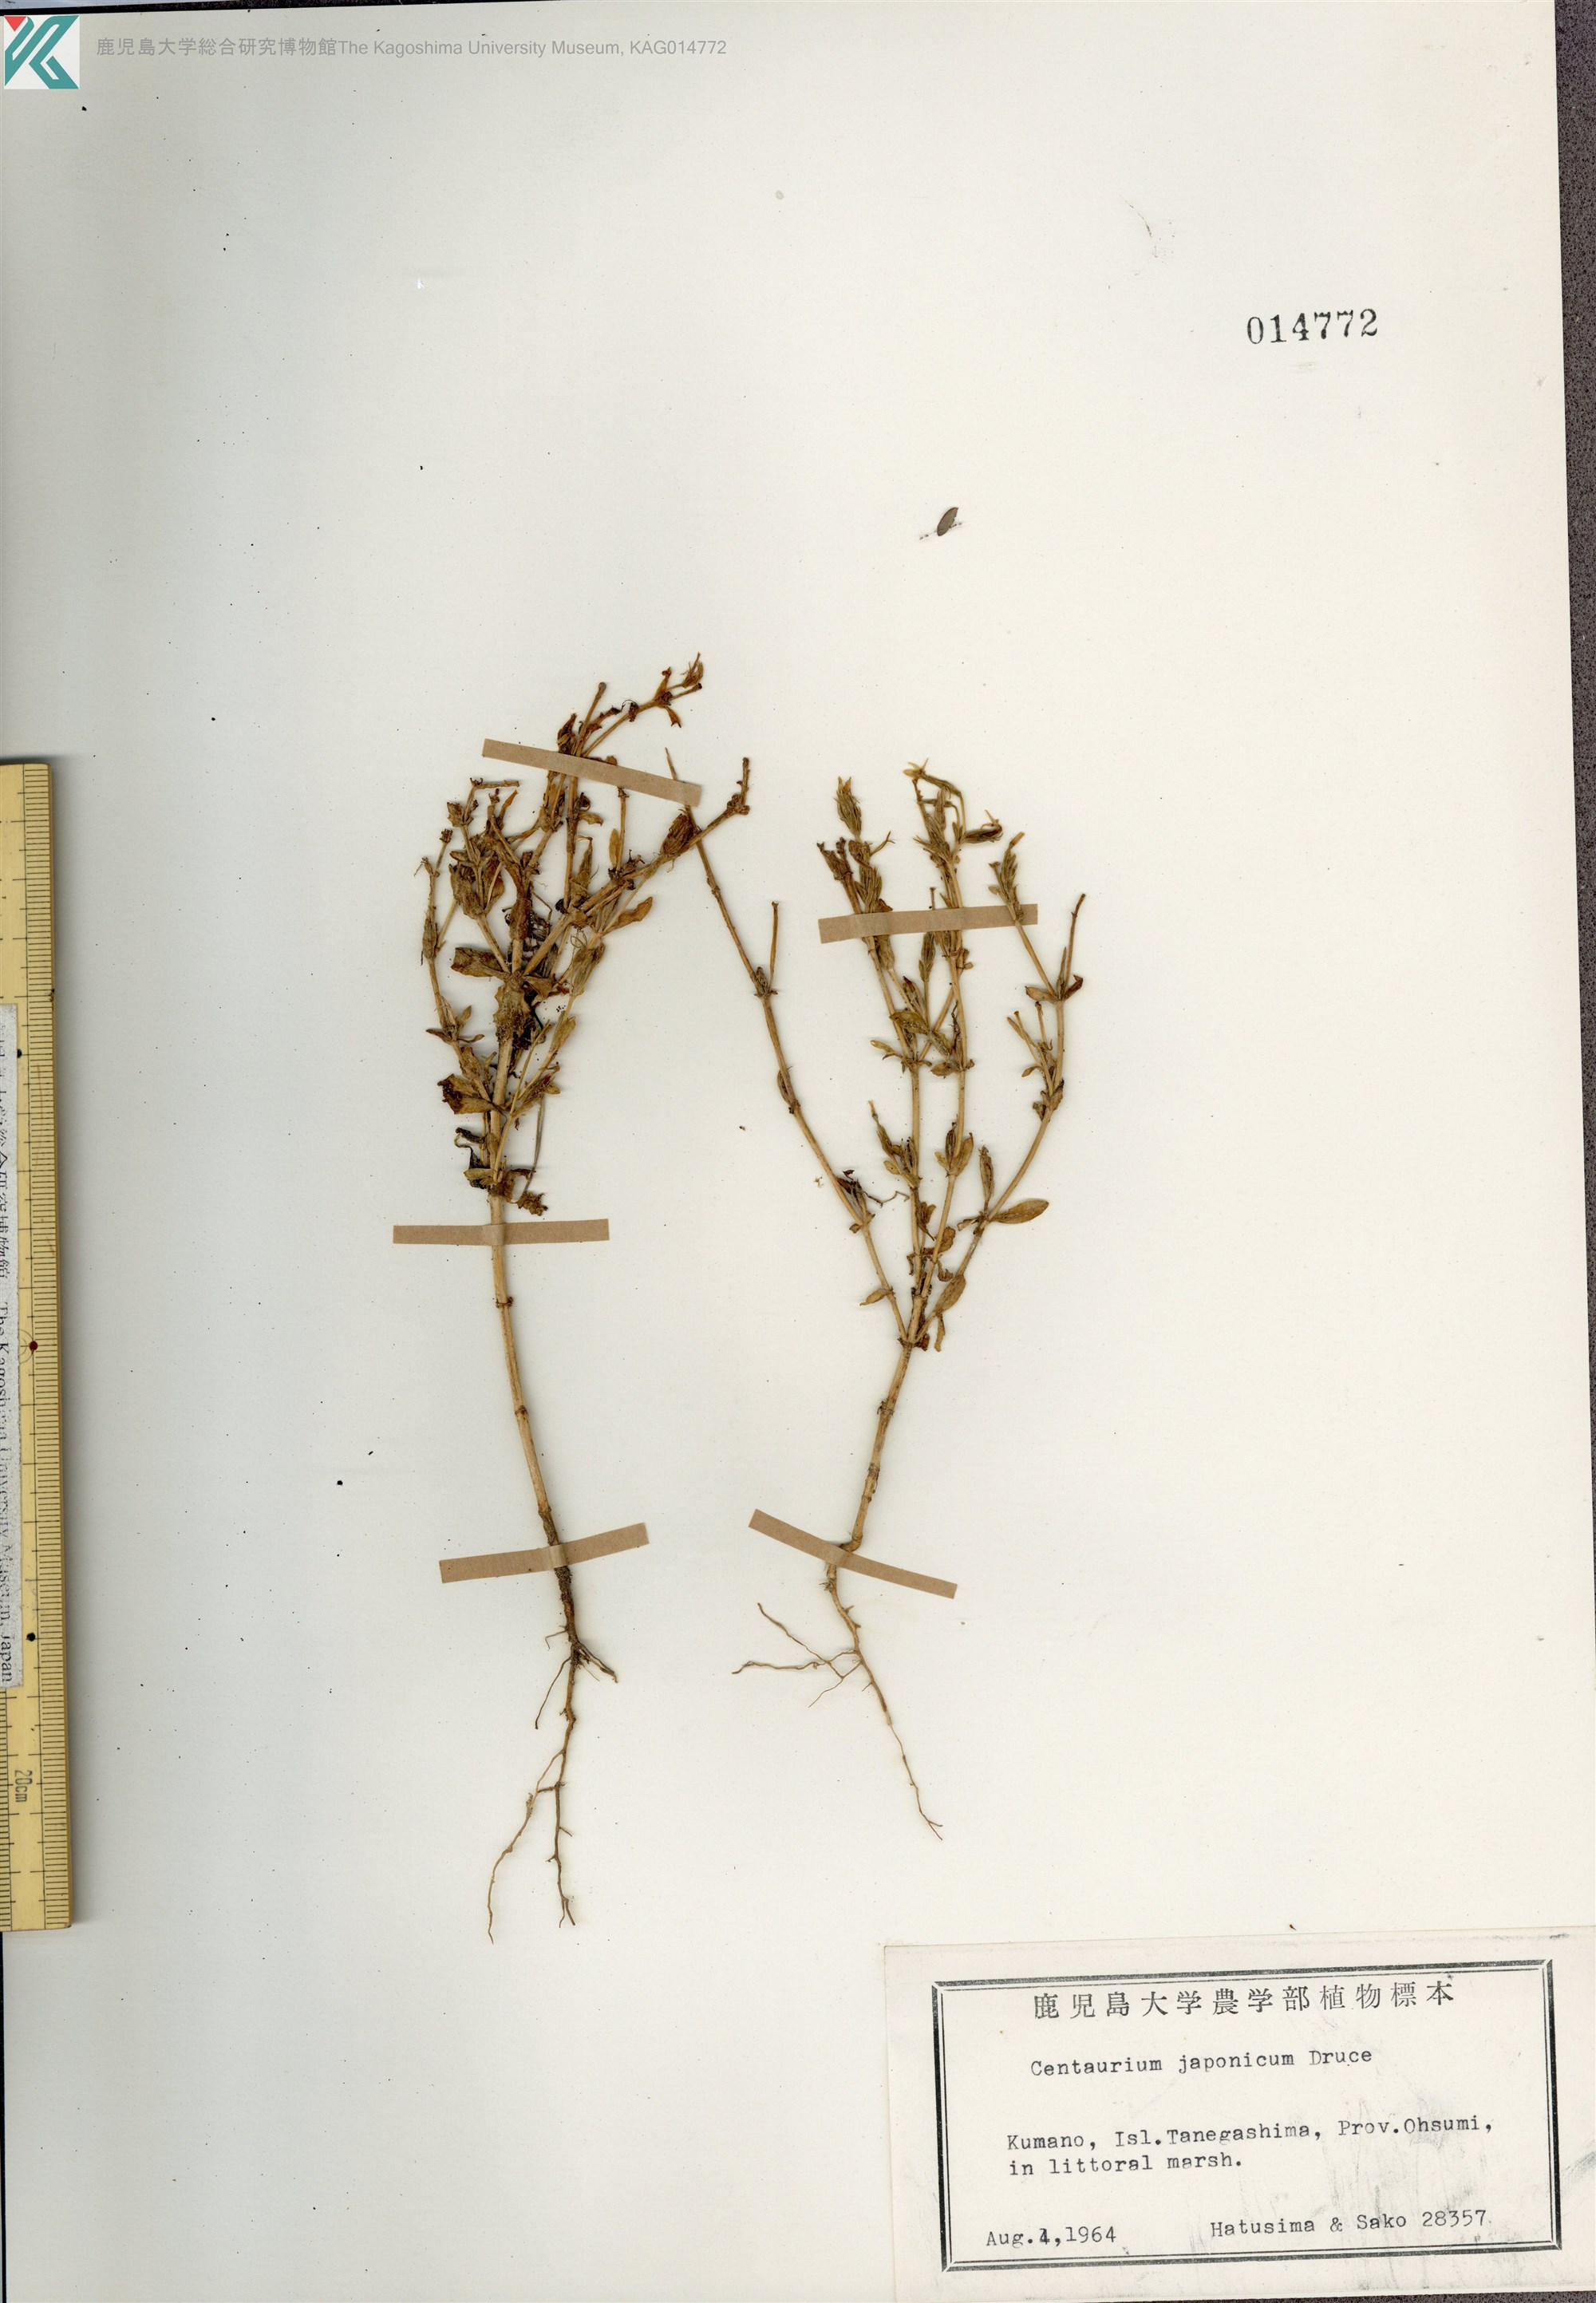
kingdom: Plantae
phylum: Tracheophyta
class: Magnoliopsida
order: Gentianales
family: Gentianaceae
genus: Schenkia
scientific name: Schenkia japonica
